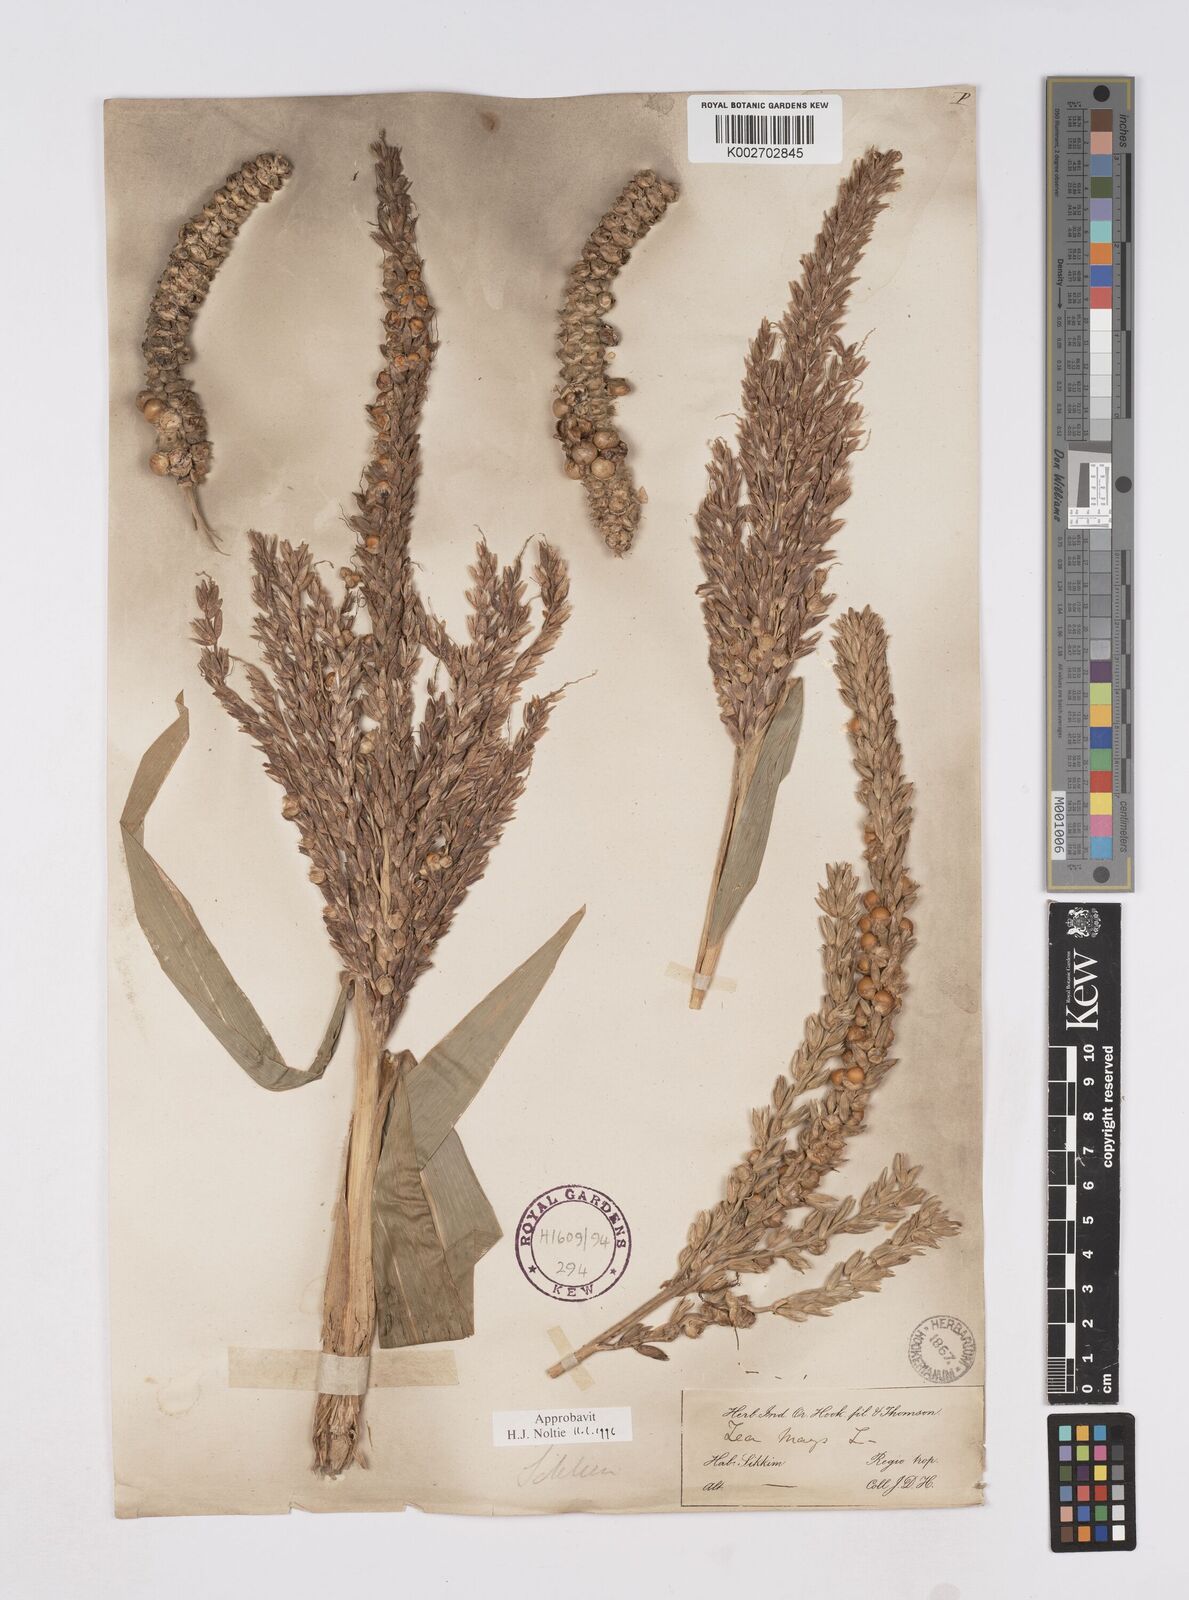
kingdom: Plantae
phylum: Tracheophyta
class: Liliopsida
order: Poales
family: Poaceae
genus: Zea
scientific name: Zea mays
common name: Maize
